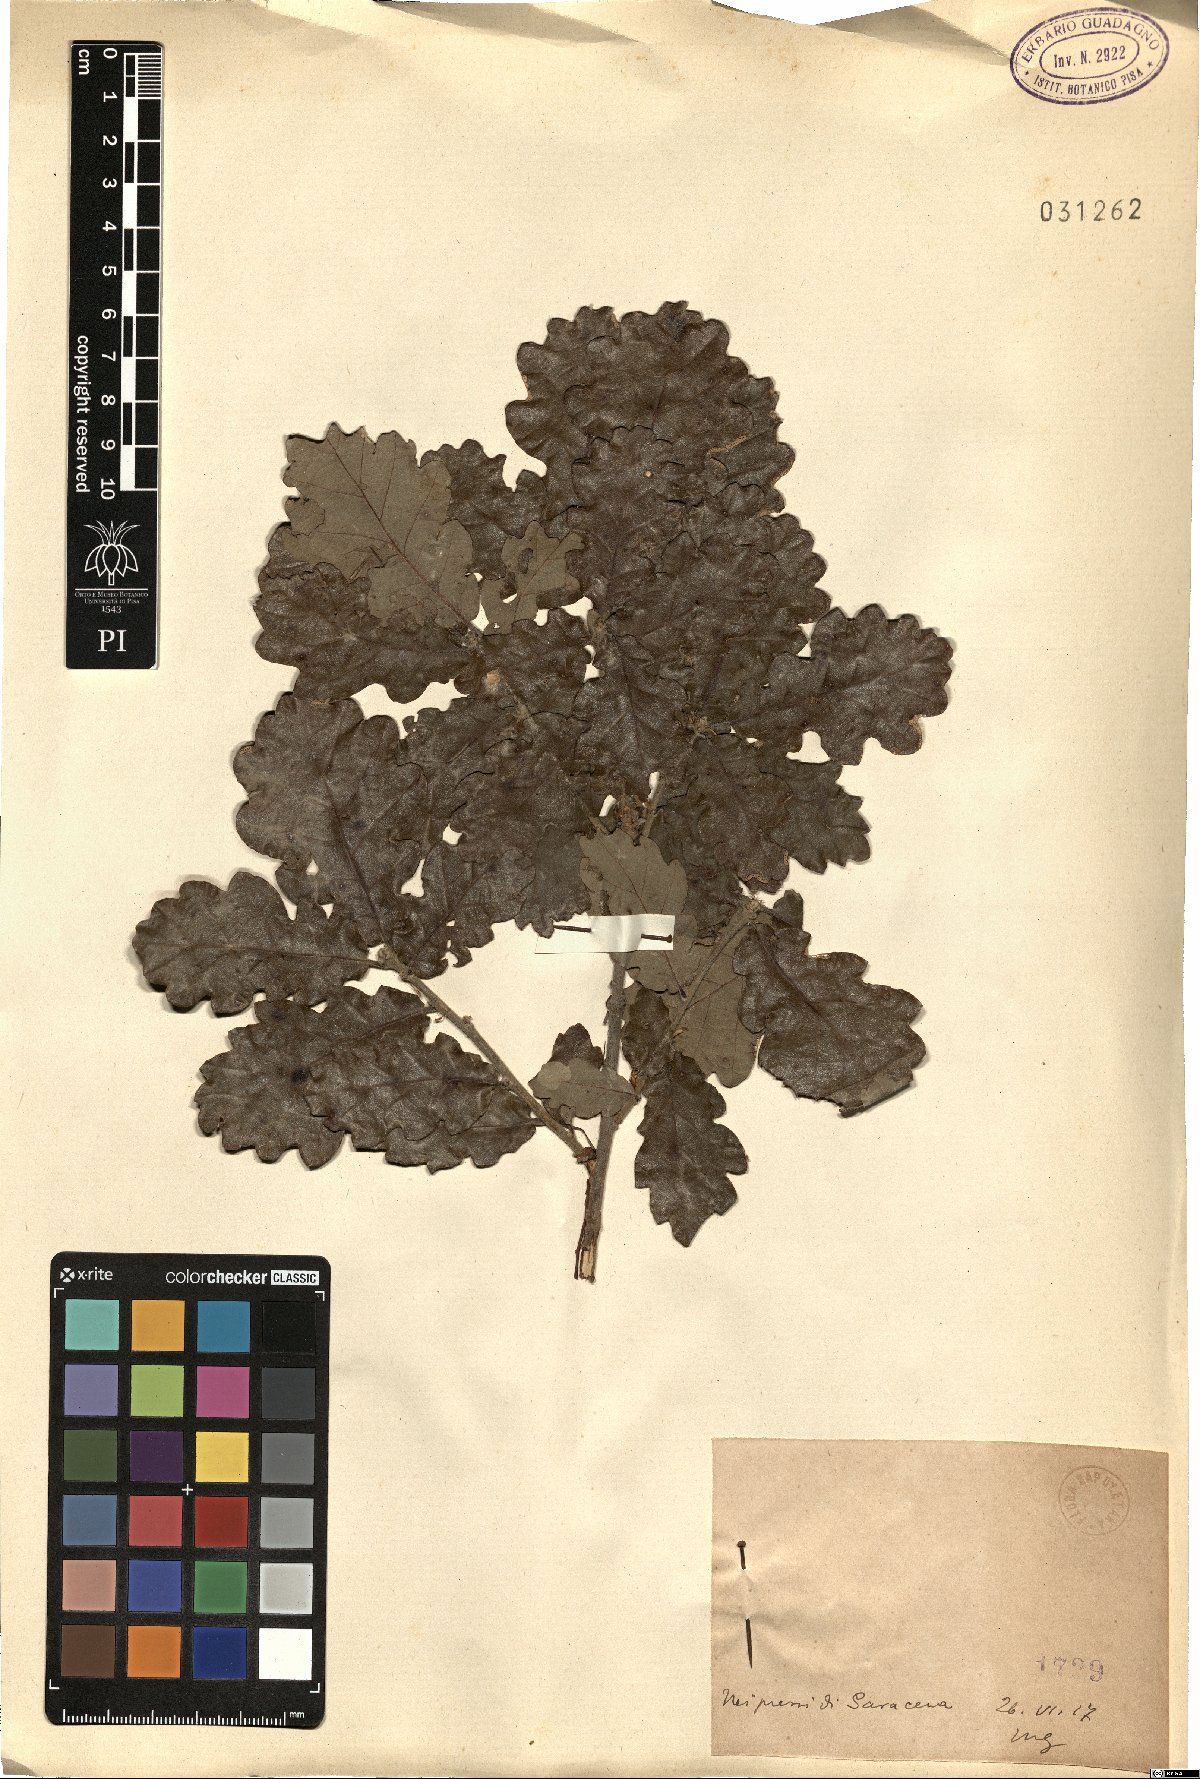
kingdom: Plantae
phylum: Tracheophyta
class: Magnoliopsida
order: Fagales
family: Fagaceae
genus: Quercus
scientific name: Quercus
